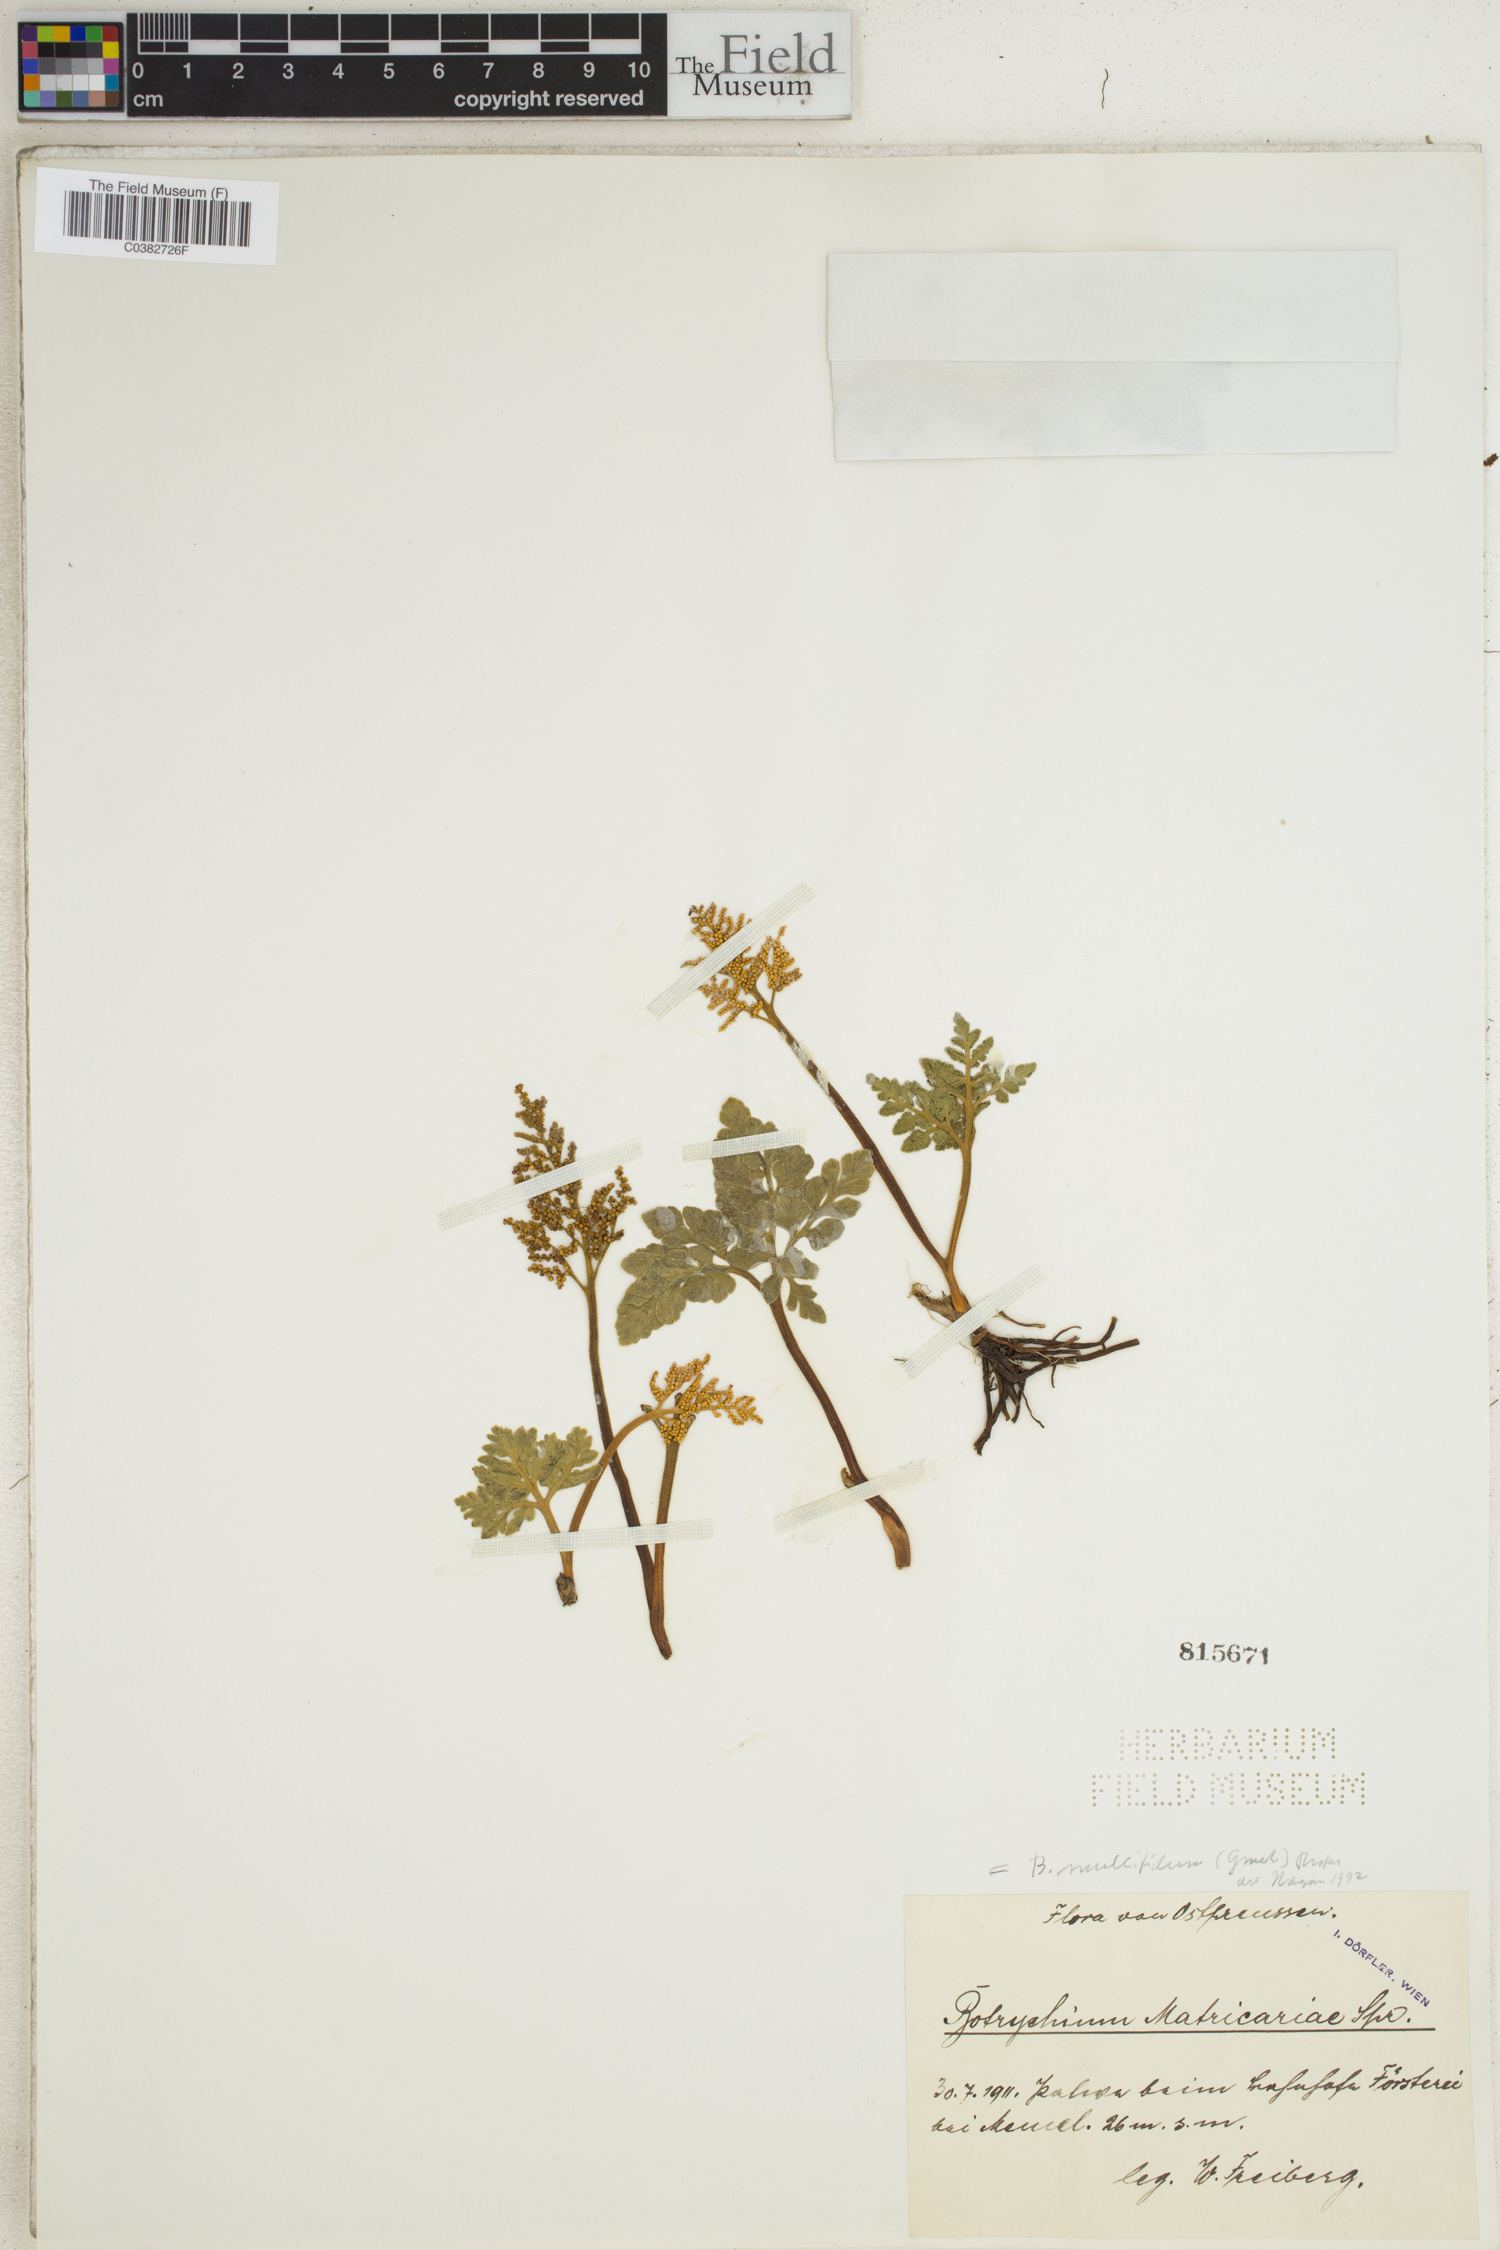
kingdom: Plantae
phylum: Tracheophyta
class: Polypodiopsida
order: Ophioglossales
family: Ophioglossaceae
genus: Sceptridium
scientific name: Sceptridium multifidum
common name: Leathery grape fern
